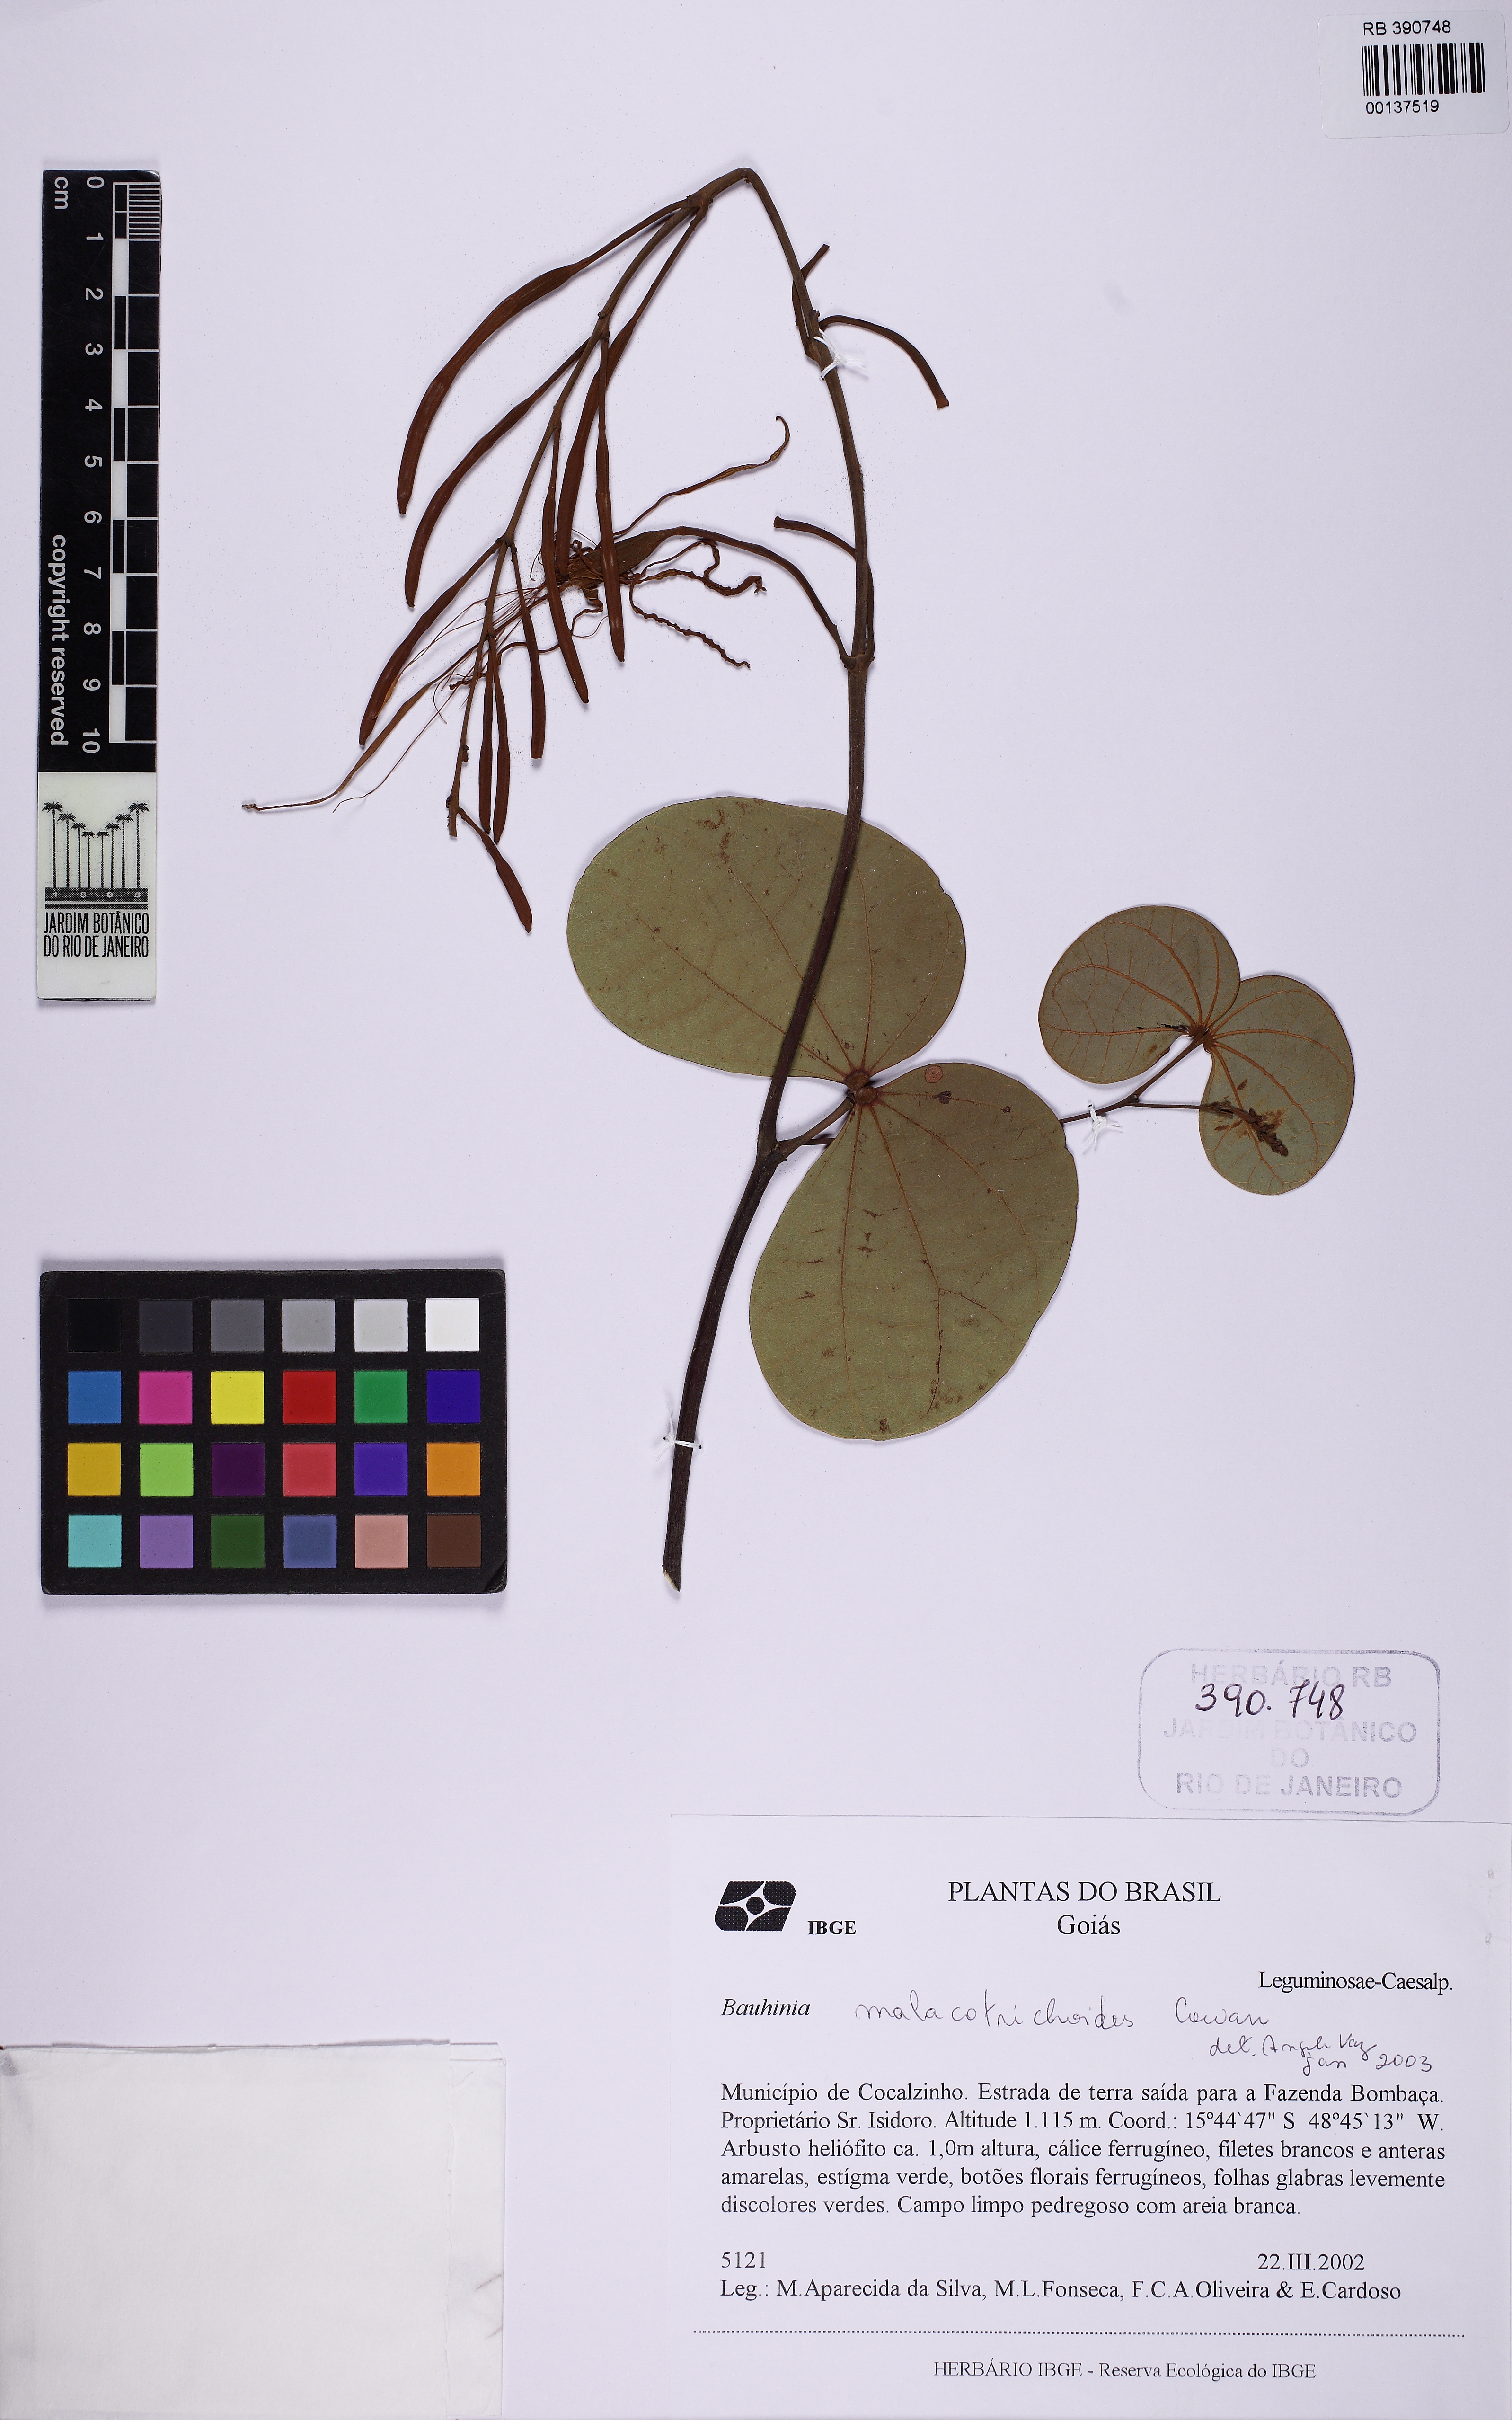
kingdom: Plantae
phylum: Tracheophyta
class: Magnoliopsida
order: Fabales
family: Fabaceae
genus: Bauhinia
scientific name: Bauhinia malacotrichoides
